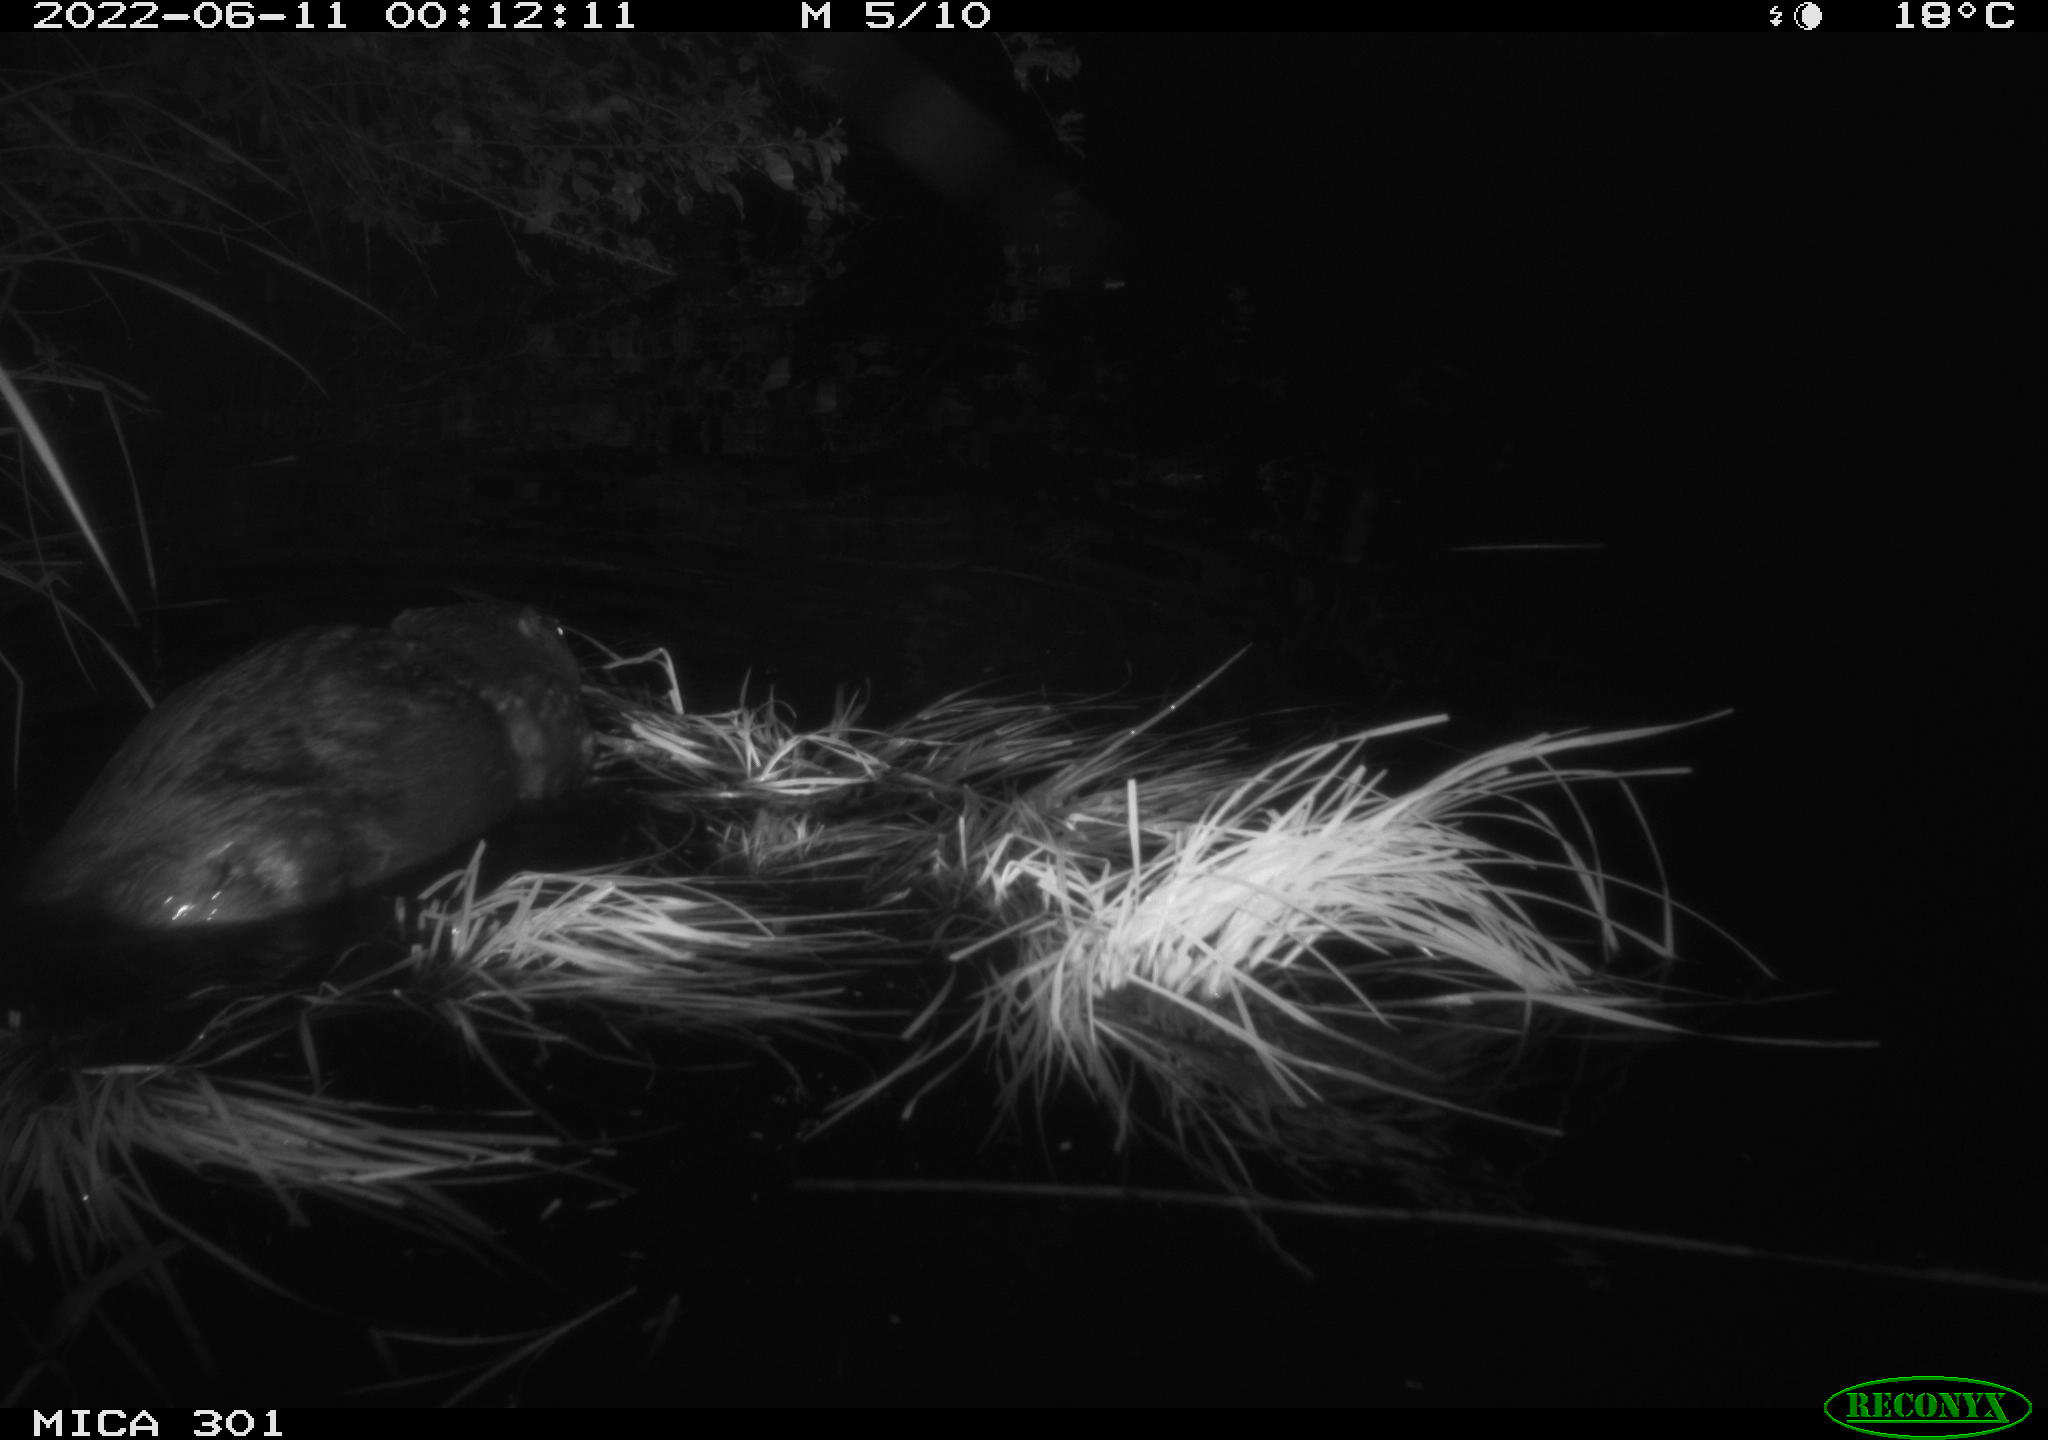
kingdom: Animalia
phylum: Chordata
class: Mammalia
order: Rodentia
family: Castoridae
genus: Castor
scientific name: Castor fiber
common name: Eurasian beaver
